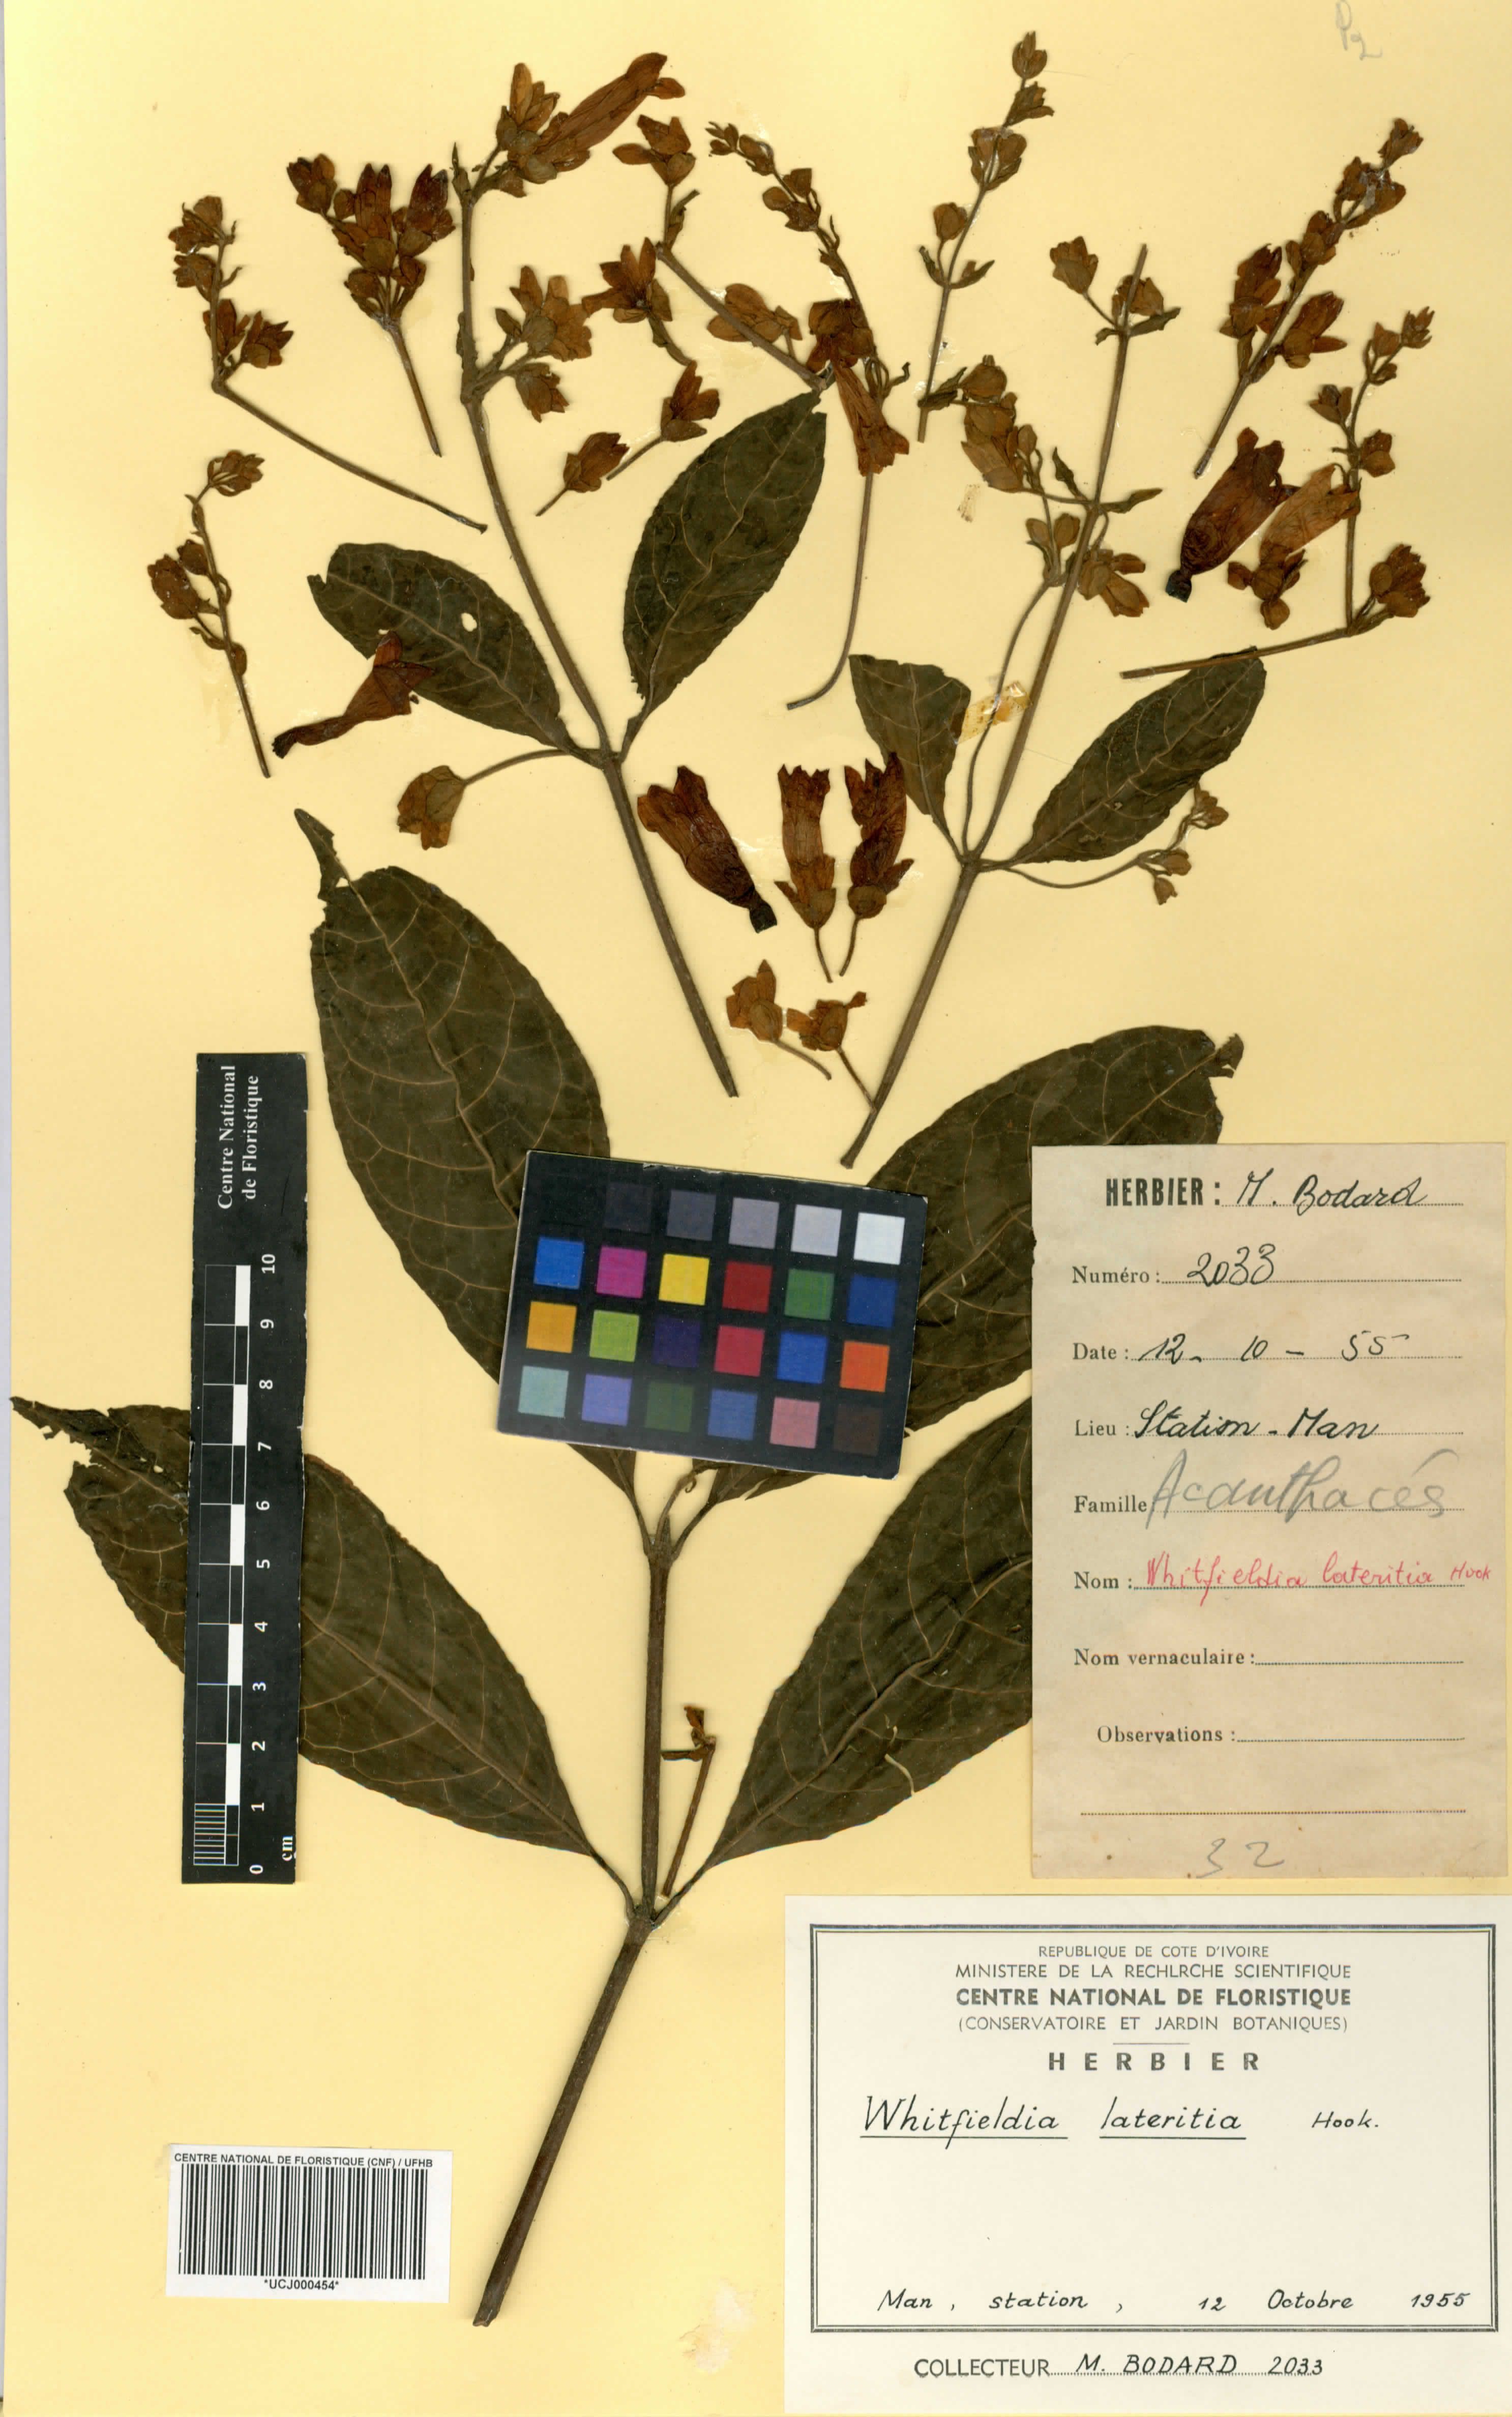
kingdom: Plantae
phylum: Tracheophyta
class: Magnoliopsida
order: Lamiales
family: Acanthaceae
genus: Whitfieldia
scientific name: Whitfieldia lateritia
